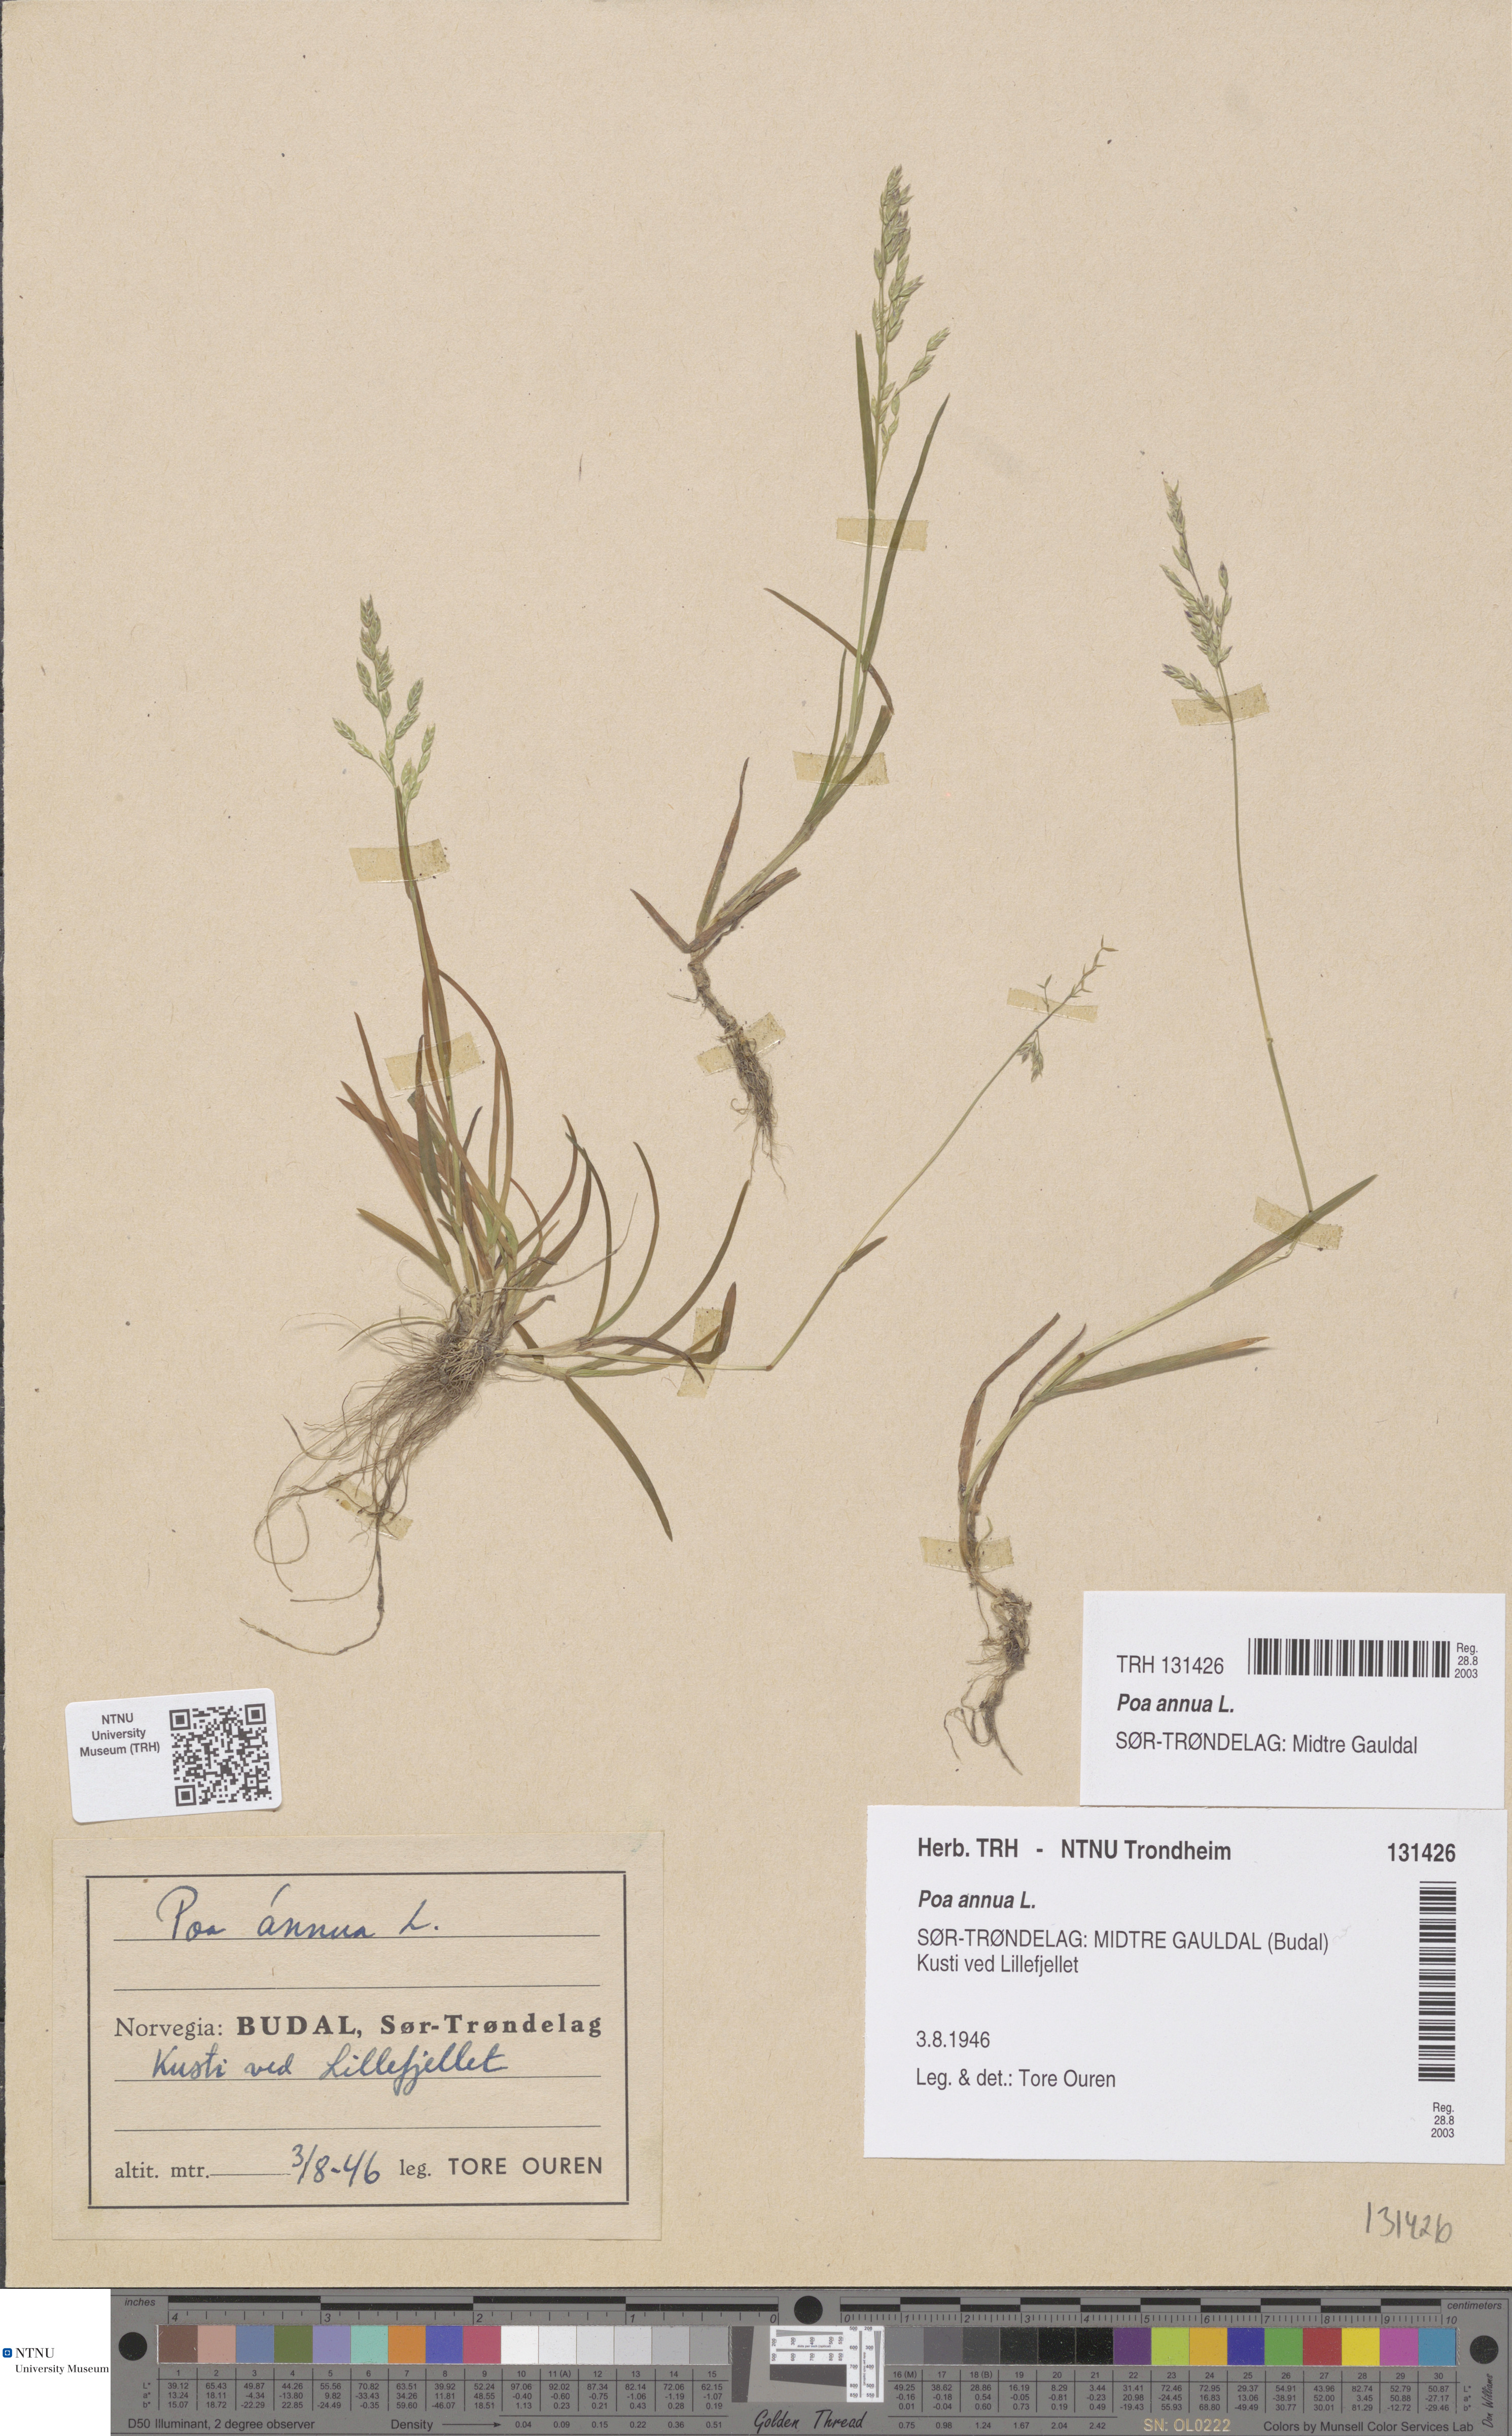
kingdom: Plantae
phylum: Tracheophyta
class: Liliopsida
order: Poales
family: Poaceae
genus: Poa
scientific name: Poa annua
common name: Annual bluegrass
